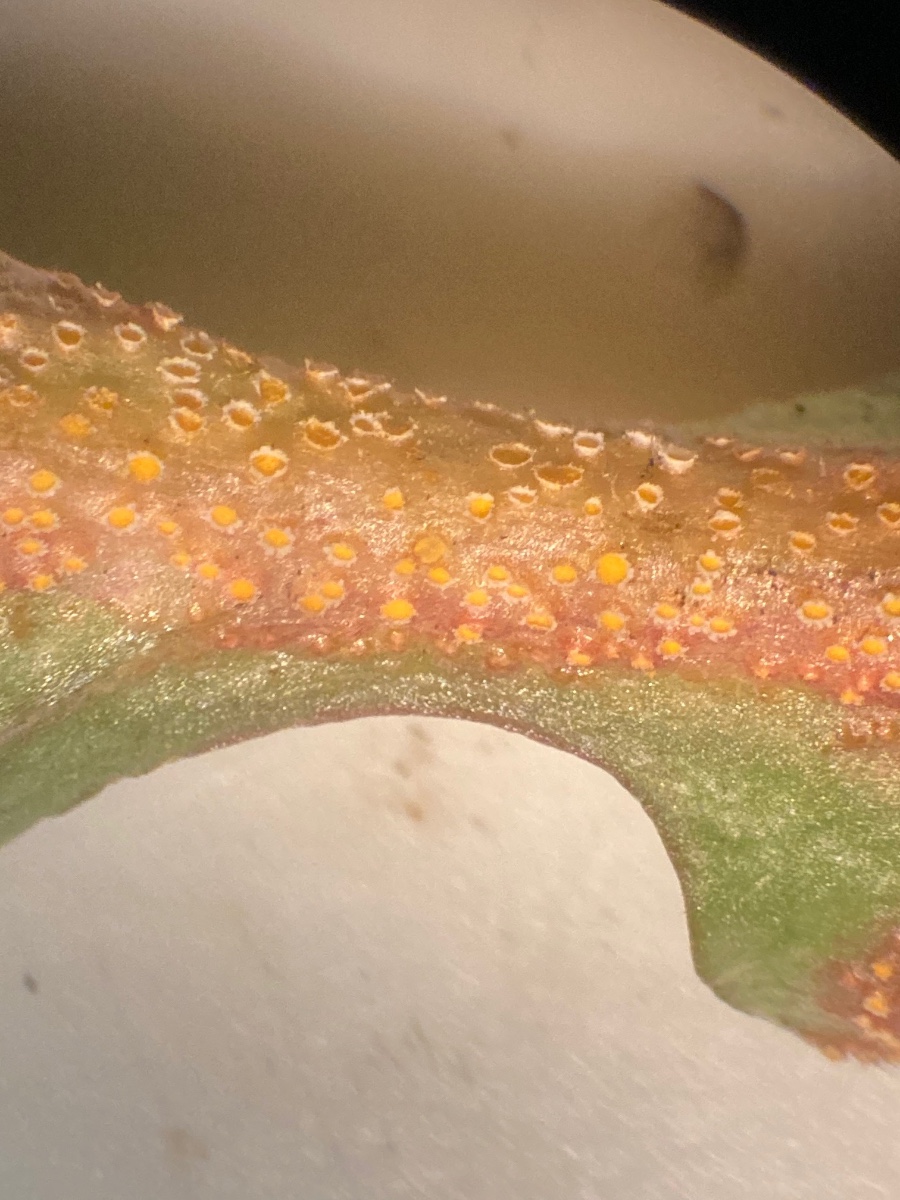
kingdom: Fungi
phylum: Basidiomycota
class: Pucciniomycetes
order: Pucciniales
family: Pucciniaceae
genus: Puccinia
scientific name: Puccinia lapsanae
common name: Nipplewort rust
